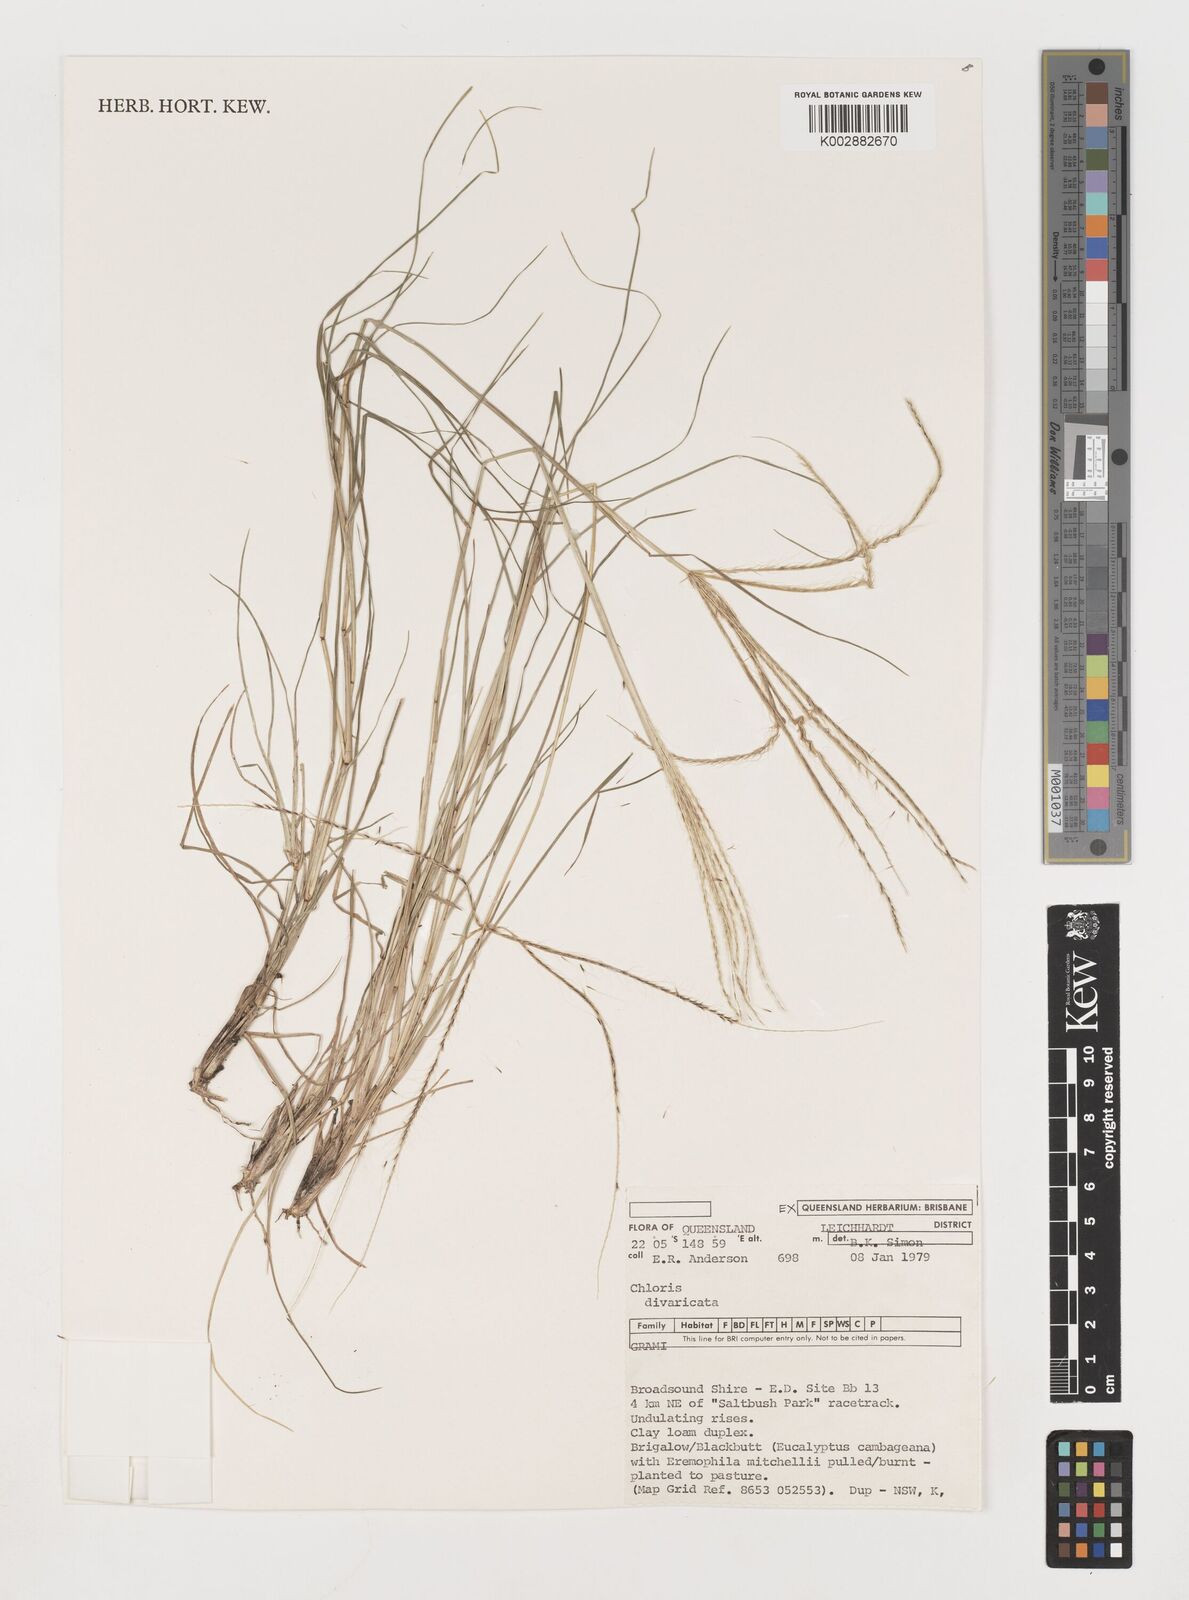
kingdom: Plantae
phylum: Tracheophyta
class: Liliopsida
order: Poales
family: Poaceae
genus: Chloris
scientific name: Chloris divaricata
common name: Spreading windmill grass
